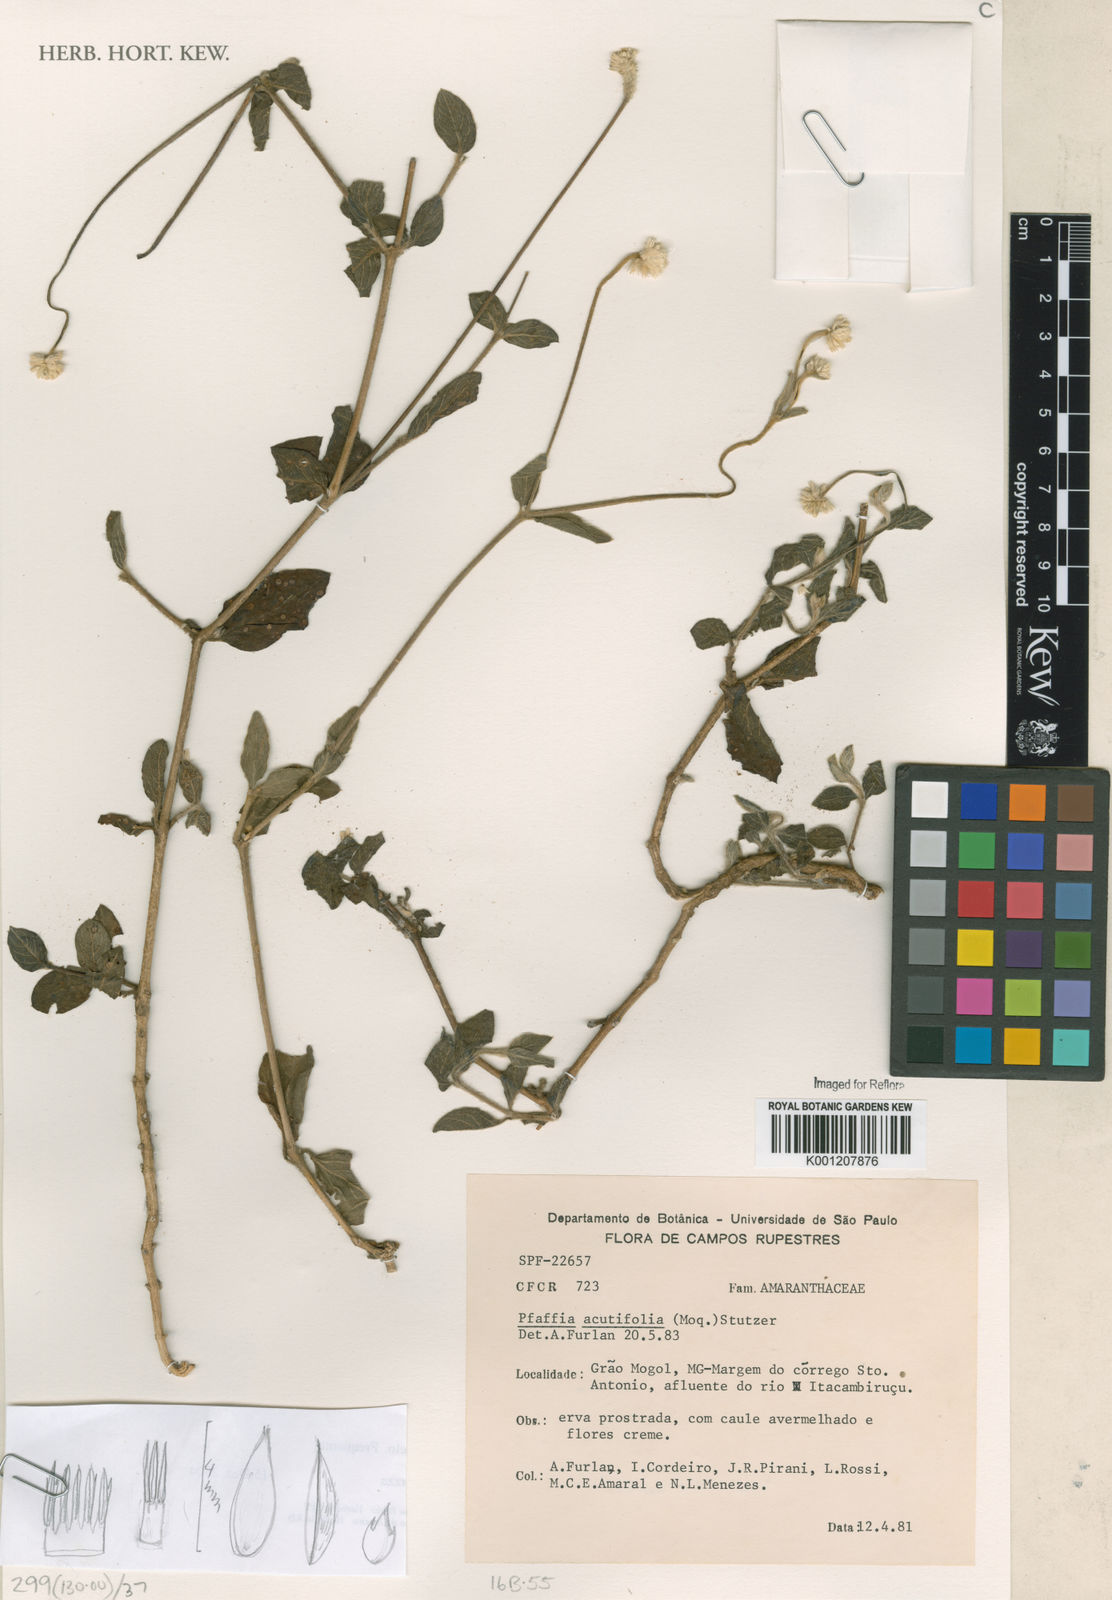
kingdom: Plantae
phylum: Tracheophyta
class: Magnoliopsida
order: Caryophyllales
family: Amaranthaceae
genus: Pfaffia
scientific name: Pfaffia
